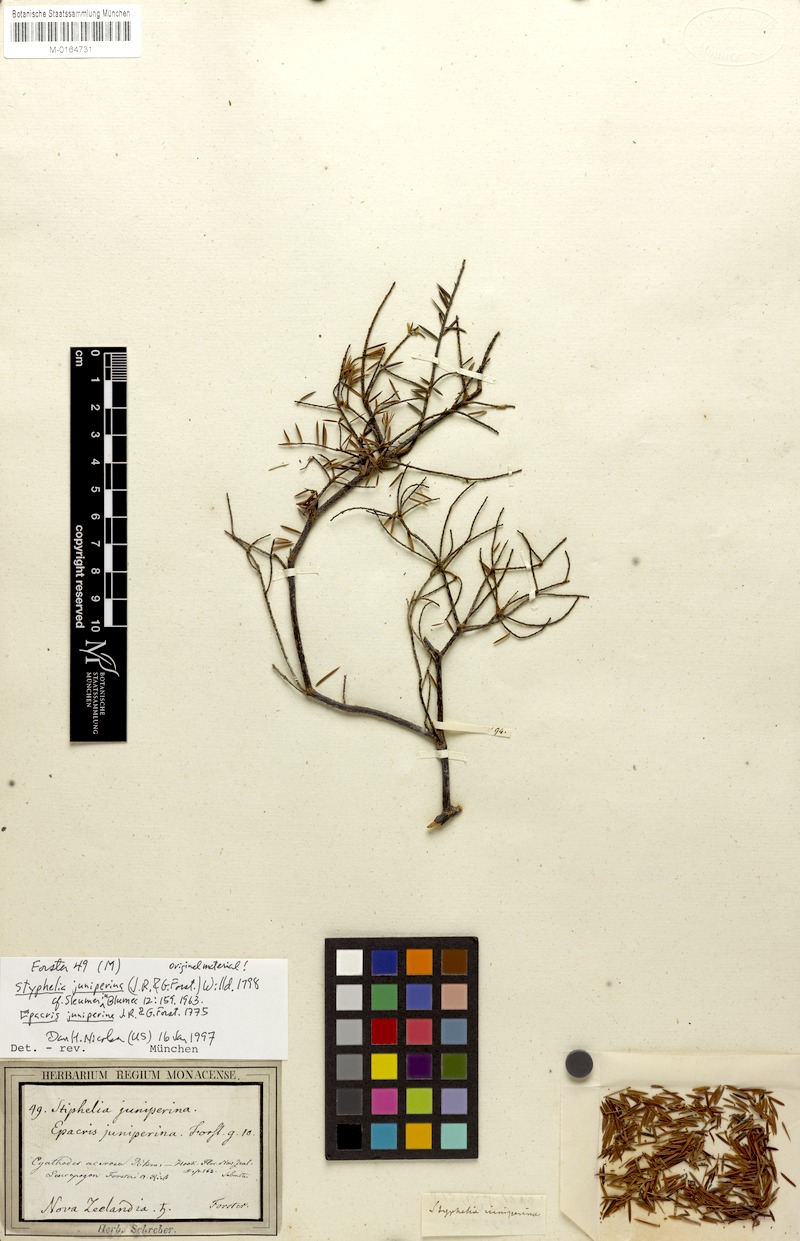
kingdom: Plantae
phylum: Tracheophyta
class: Magnoliopsida
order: Ericales
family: Ericaceae
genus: Styphelia
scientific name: Styphelia sieberi
